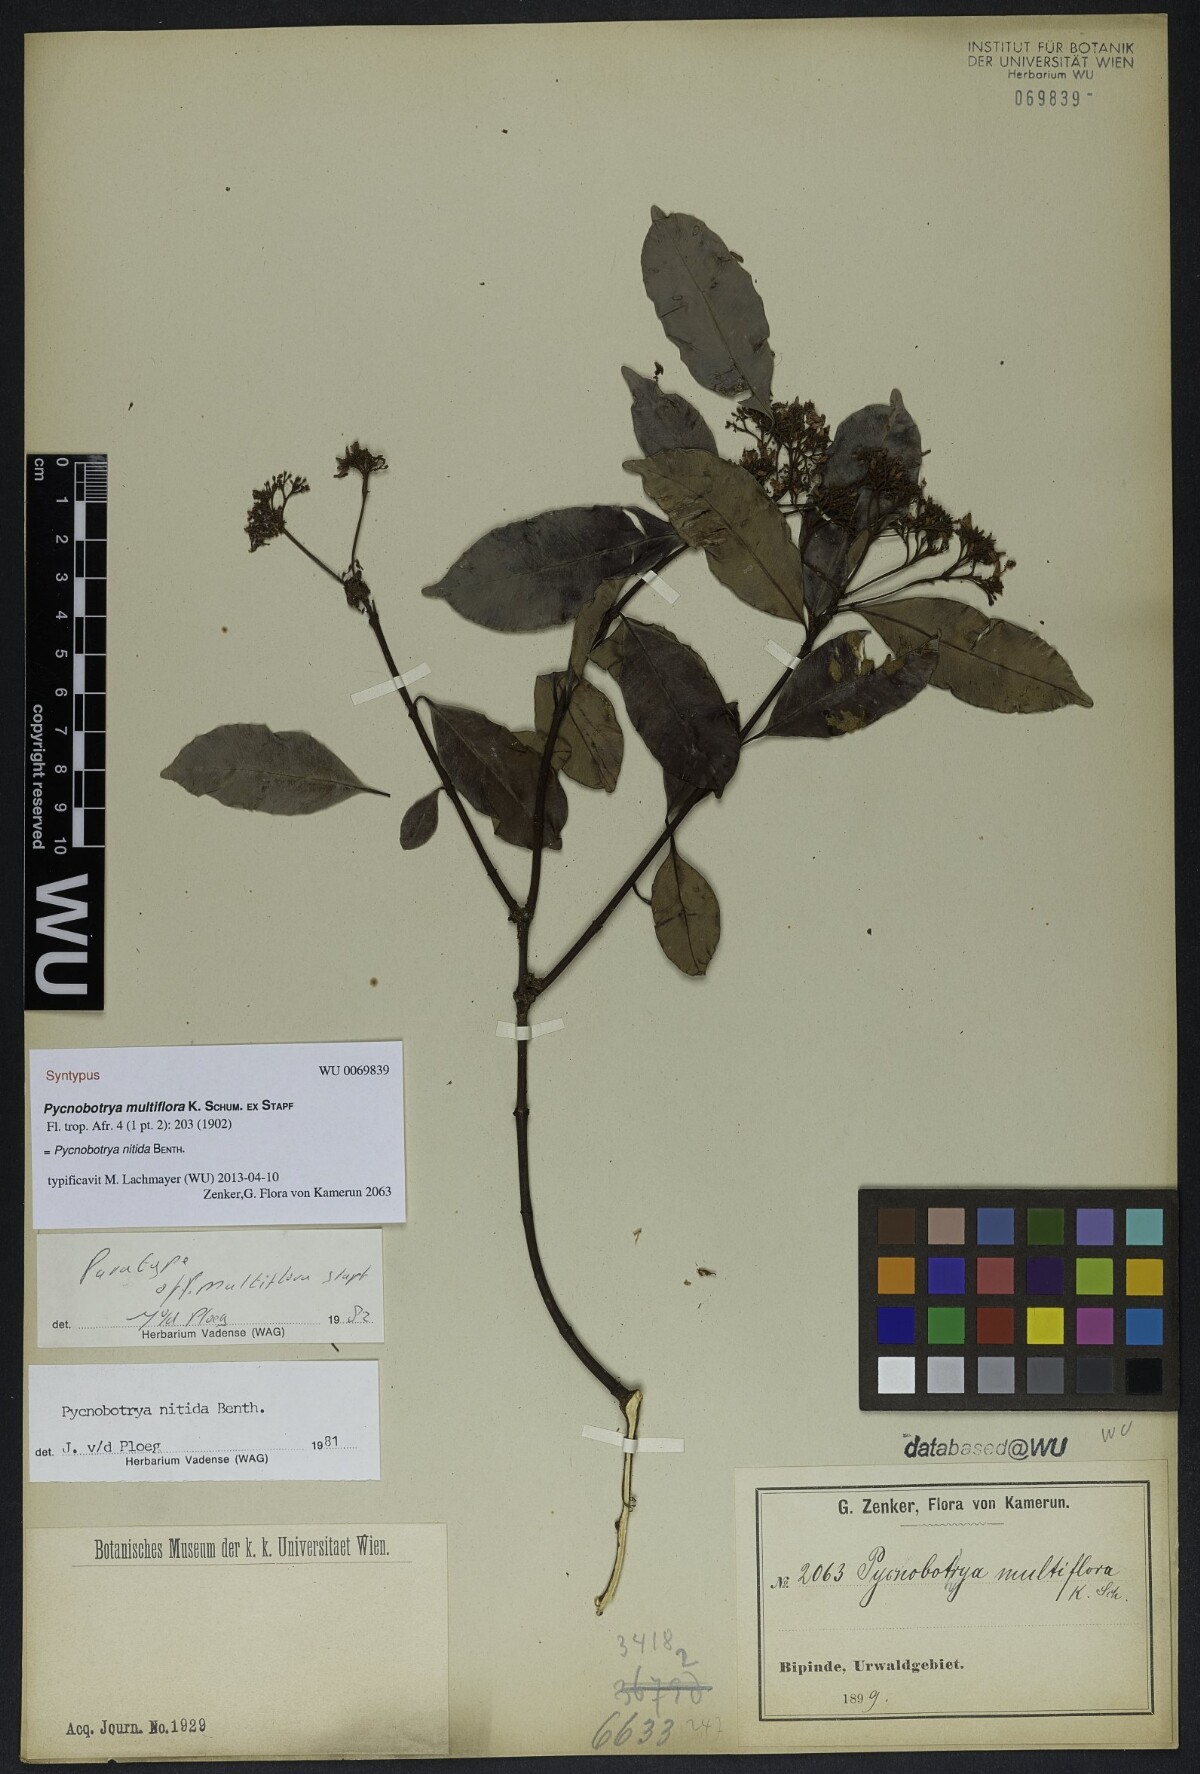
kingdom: Plantae
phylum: Tracheophyta
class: Magnoliopsida
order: Gentianales
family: Apocynaceae
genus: Pycnobotrya
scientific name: Pycnobotrya nitida
